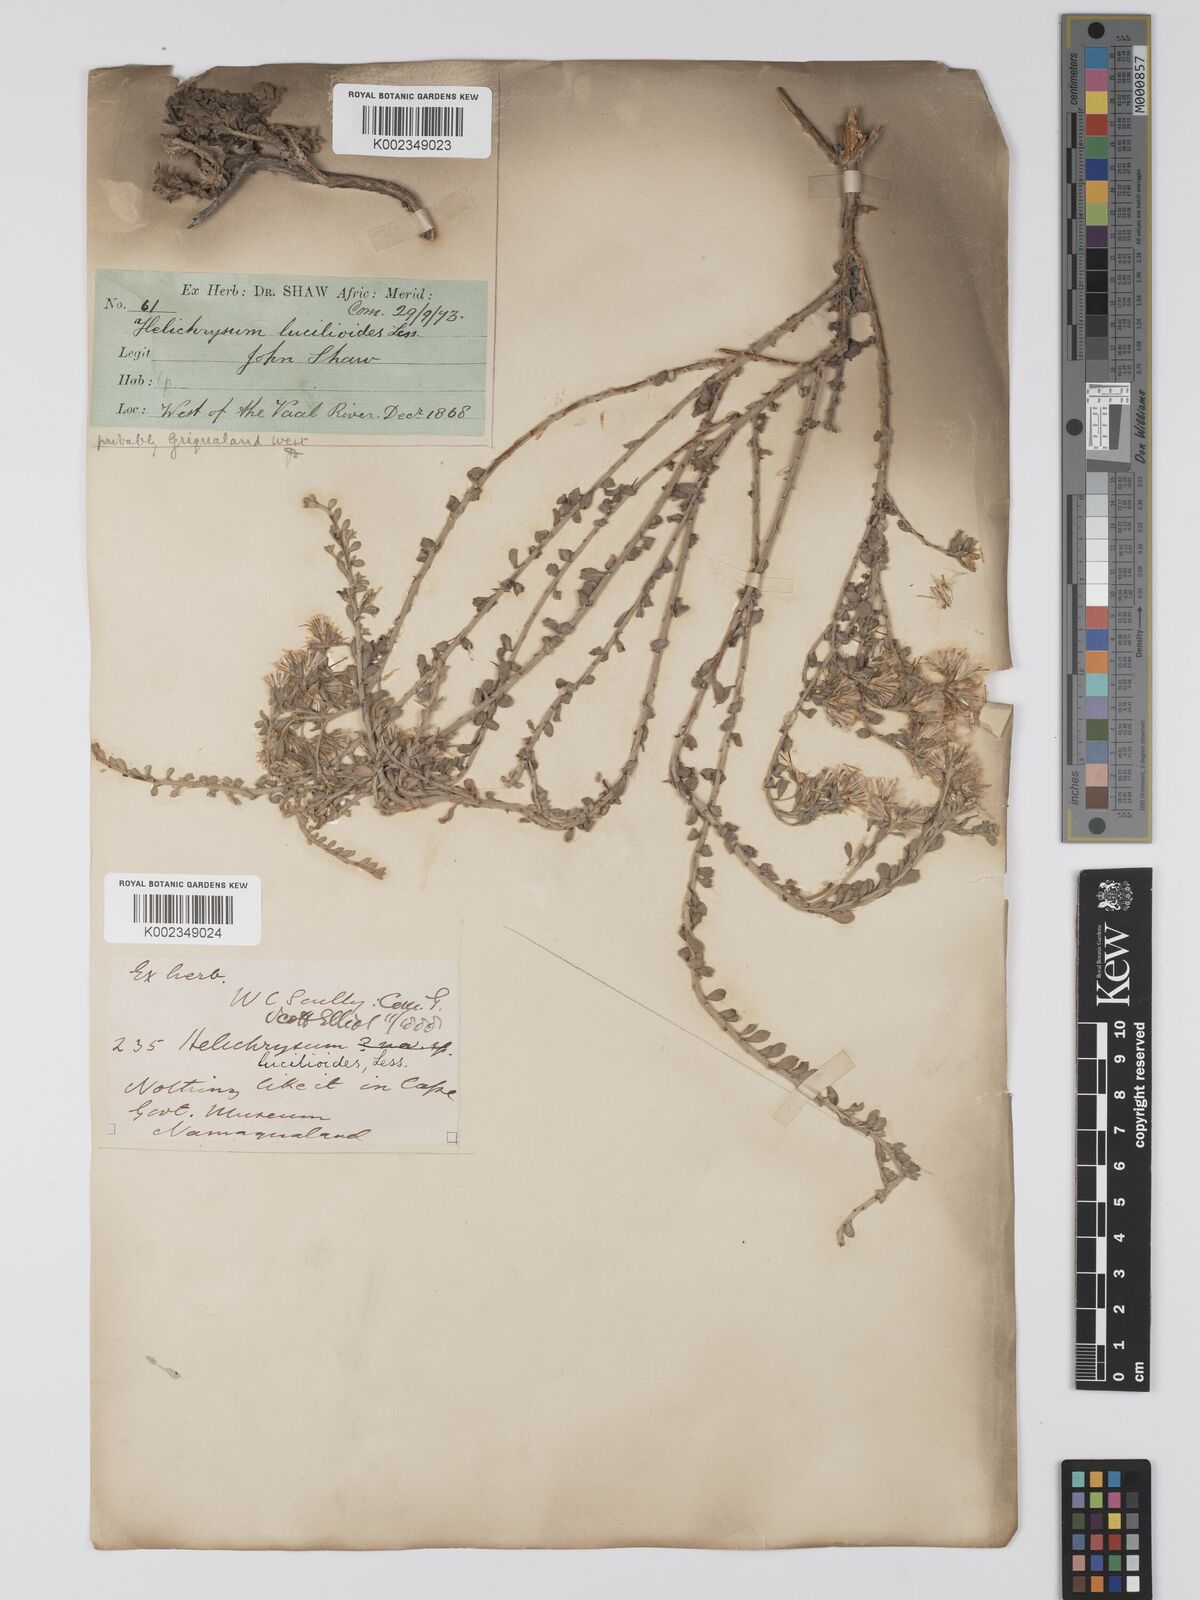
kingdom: Plantae
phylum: Tracheophyta
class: Magnoliopsida
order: Asterales
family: Asteraceae
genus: Helichrysum
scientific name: Helichrysum lucilioides
